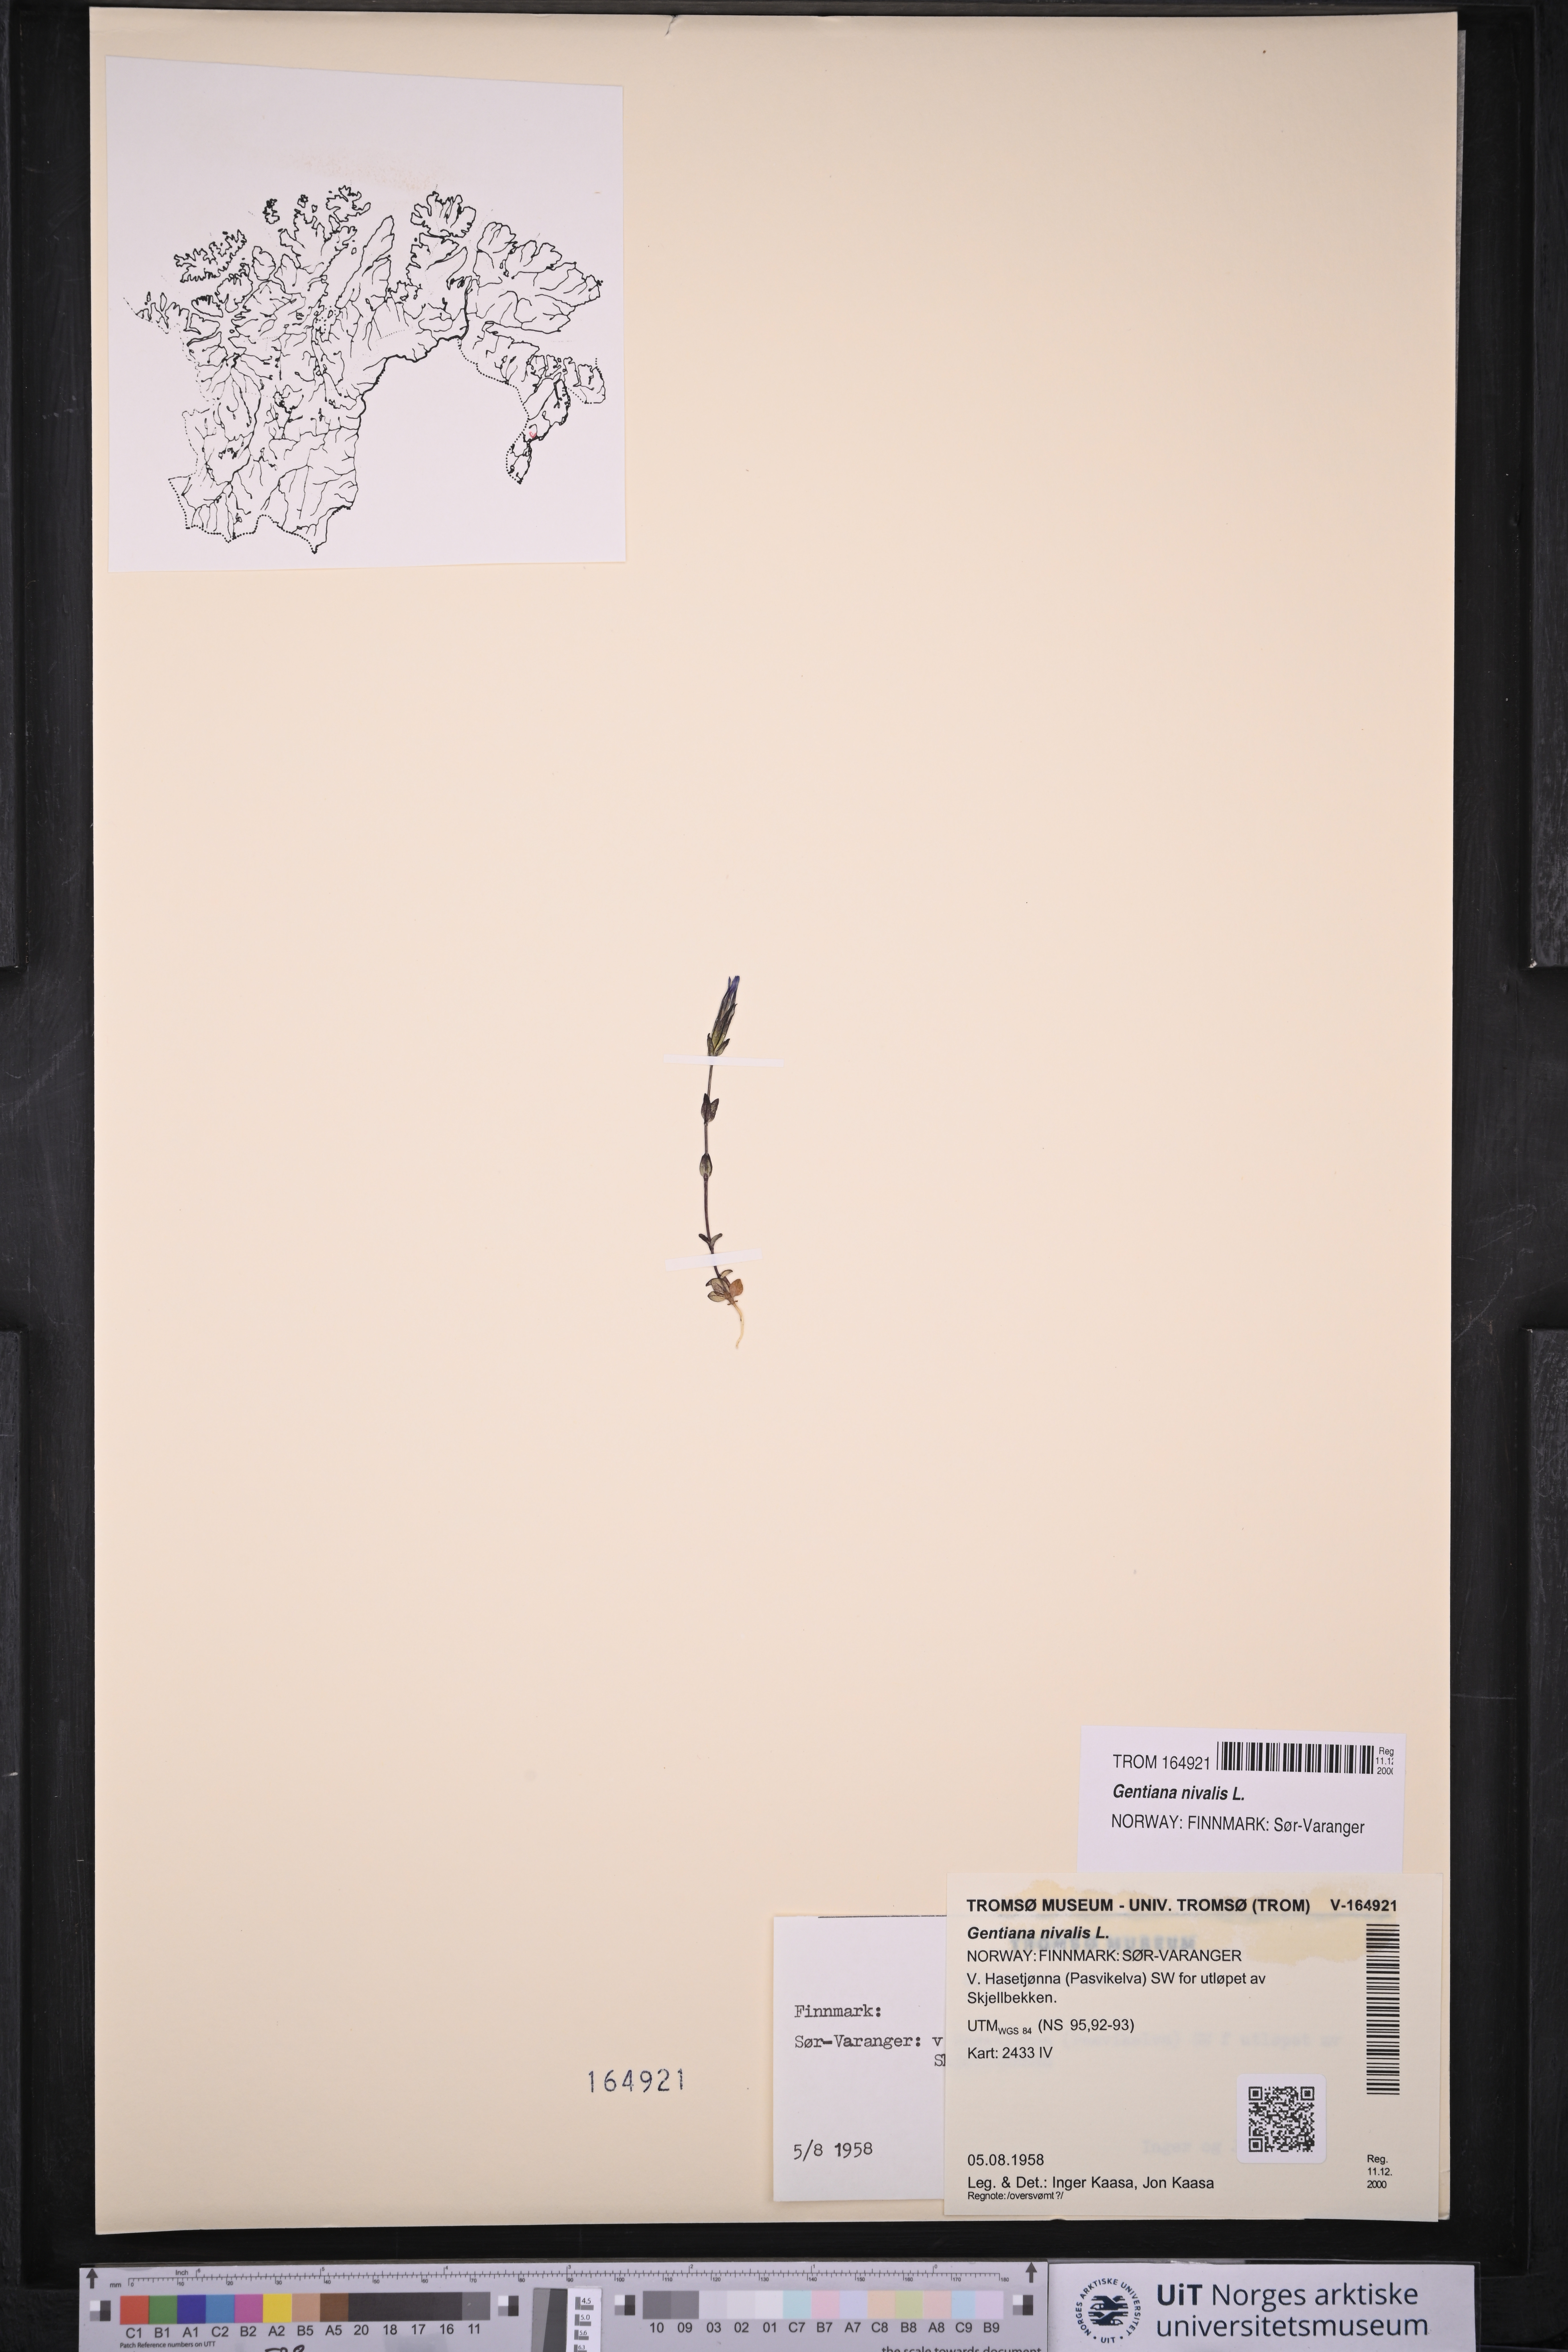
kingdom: Plantae
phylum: Tracheophyta
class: Magnoliopsida
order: Gentianales
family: Gentianaceae
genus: Gentiana
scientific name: Gentiana nivalis
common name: Alpine gentian
